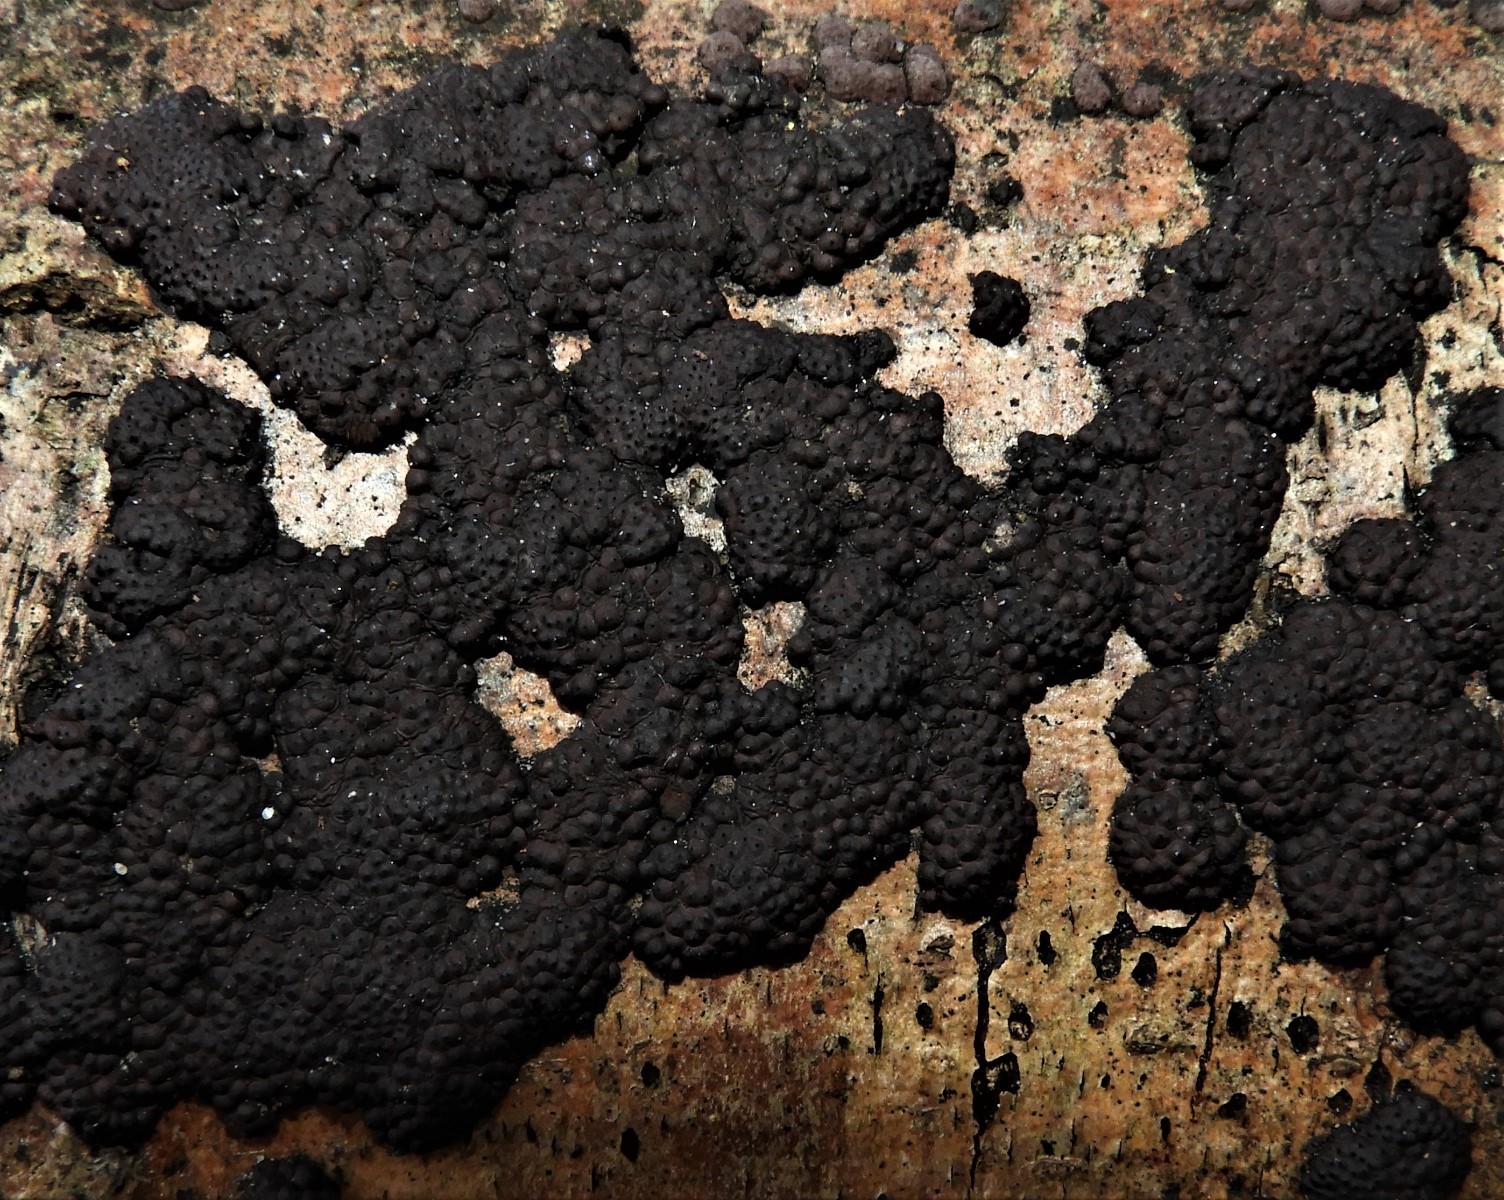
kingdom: Fungi
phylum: Ascomycota
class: Sordariomycetes
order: Xylariales
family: Hypoxylaceae
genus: Jackrogersella
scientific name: Jackrogersella multiformis
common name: foranderlig kulbær
